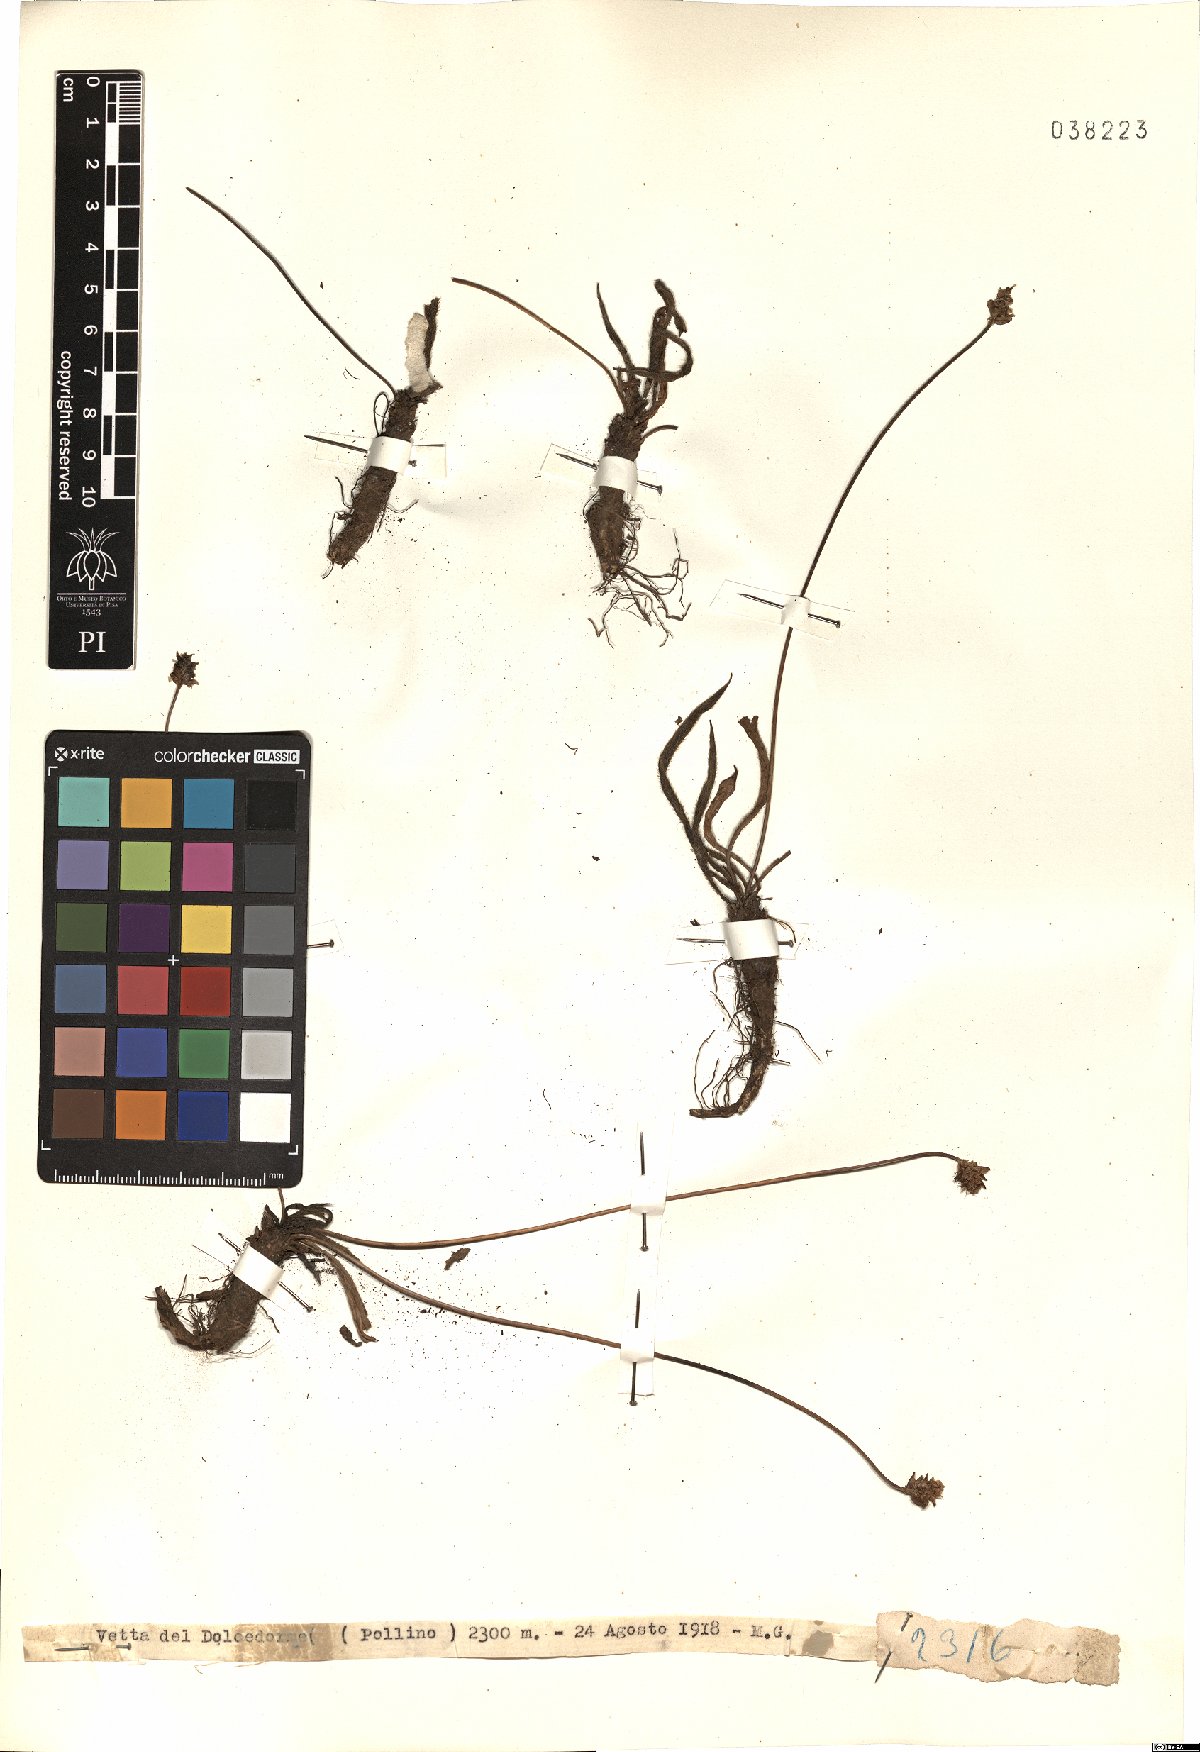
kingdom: Plantae
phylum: Tracheophyta
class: Magnoliopsida
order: Lamiales
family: Plantaginaceae
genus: Plantago
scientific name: Plantago
